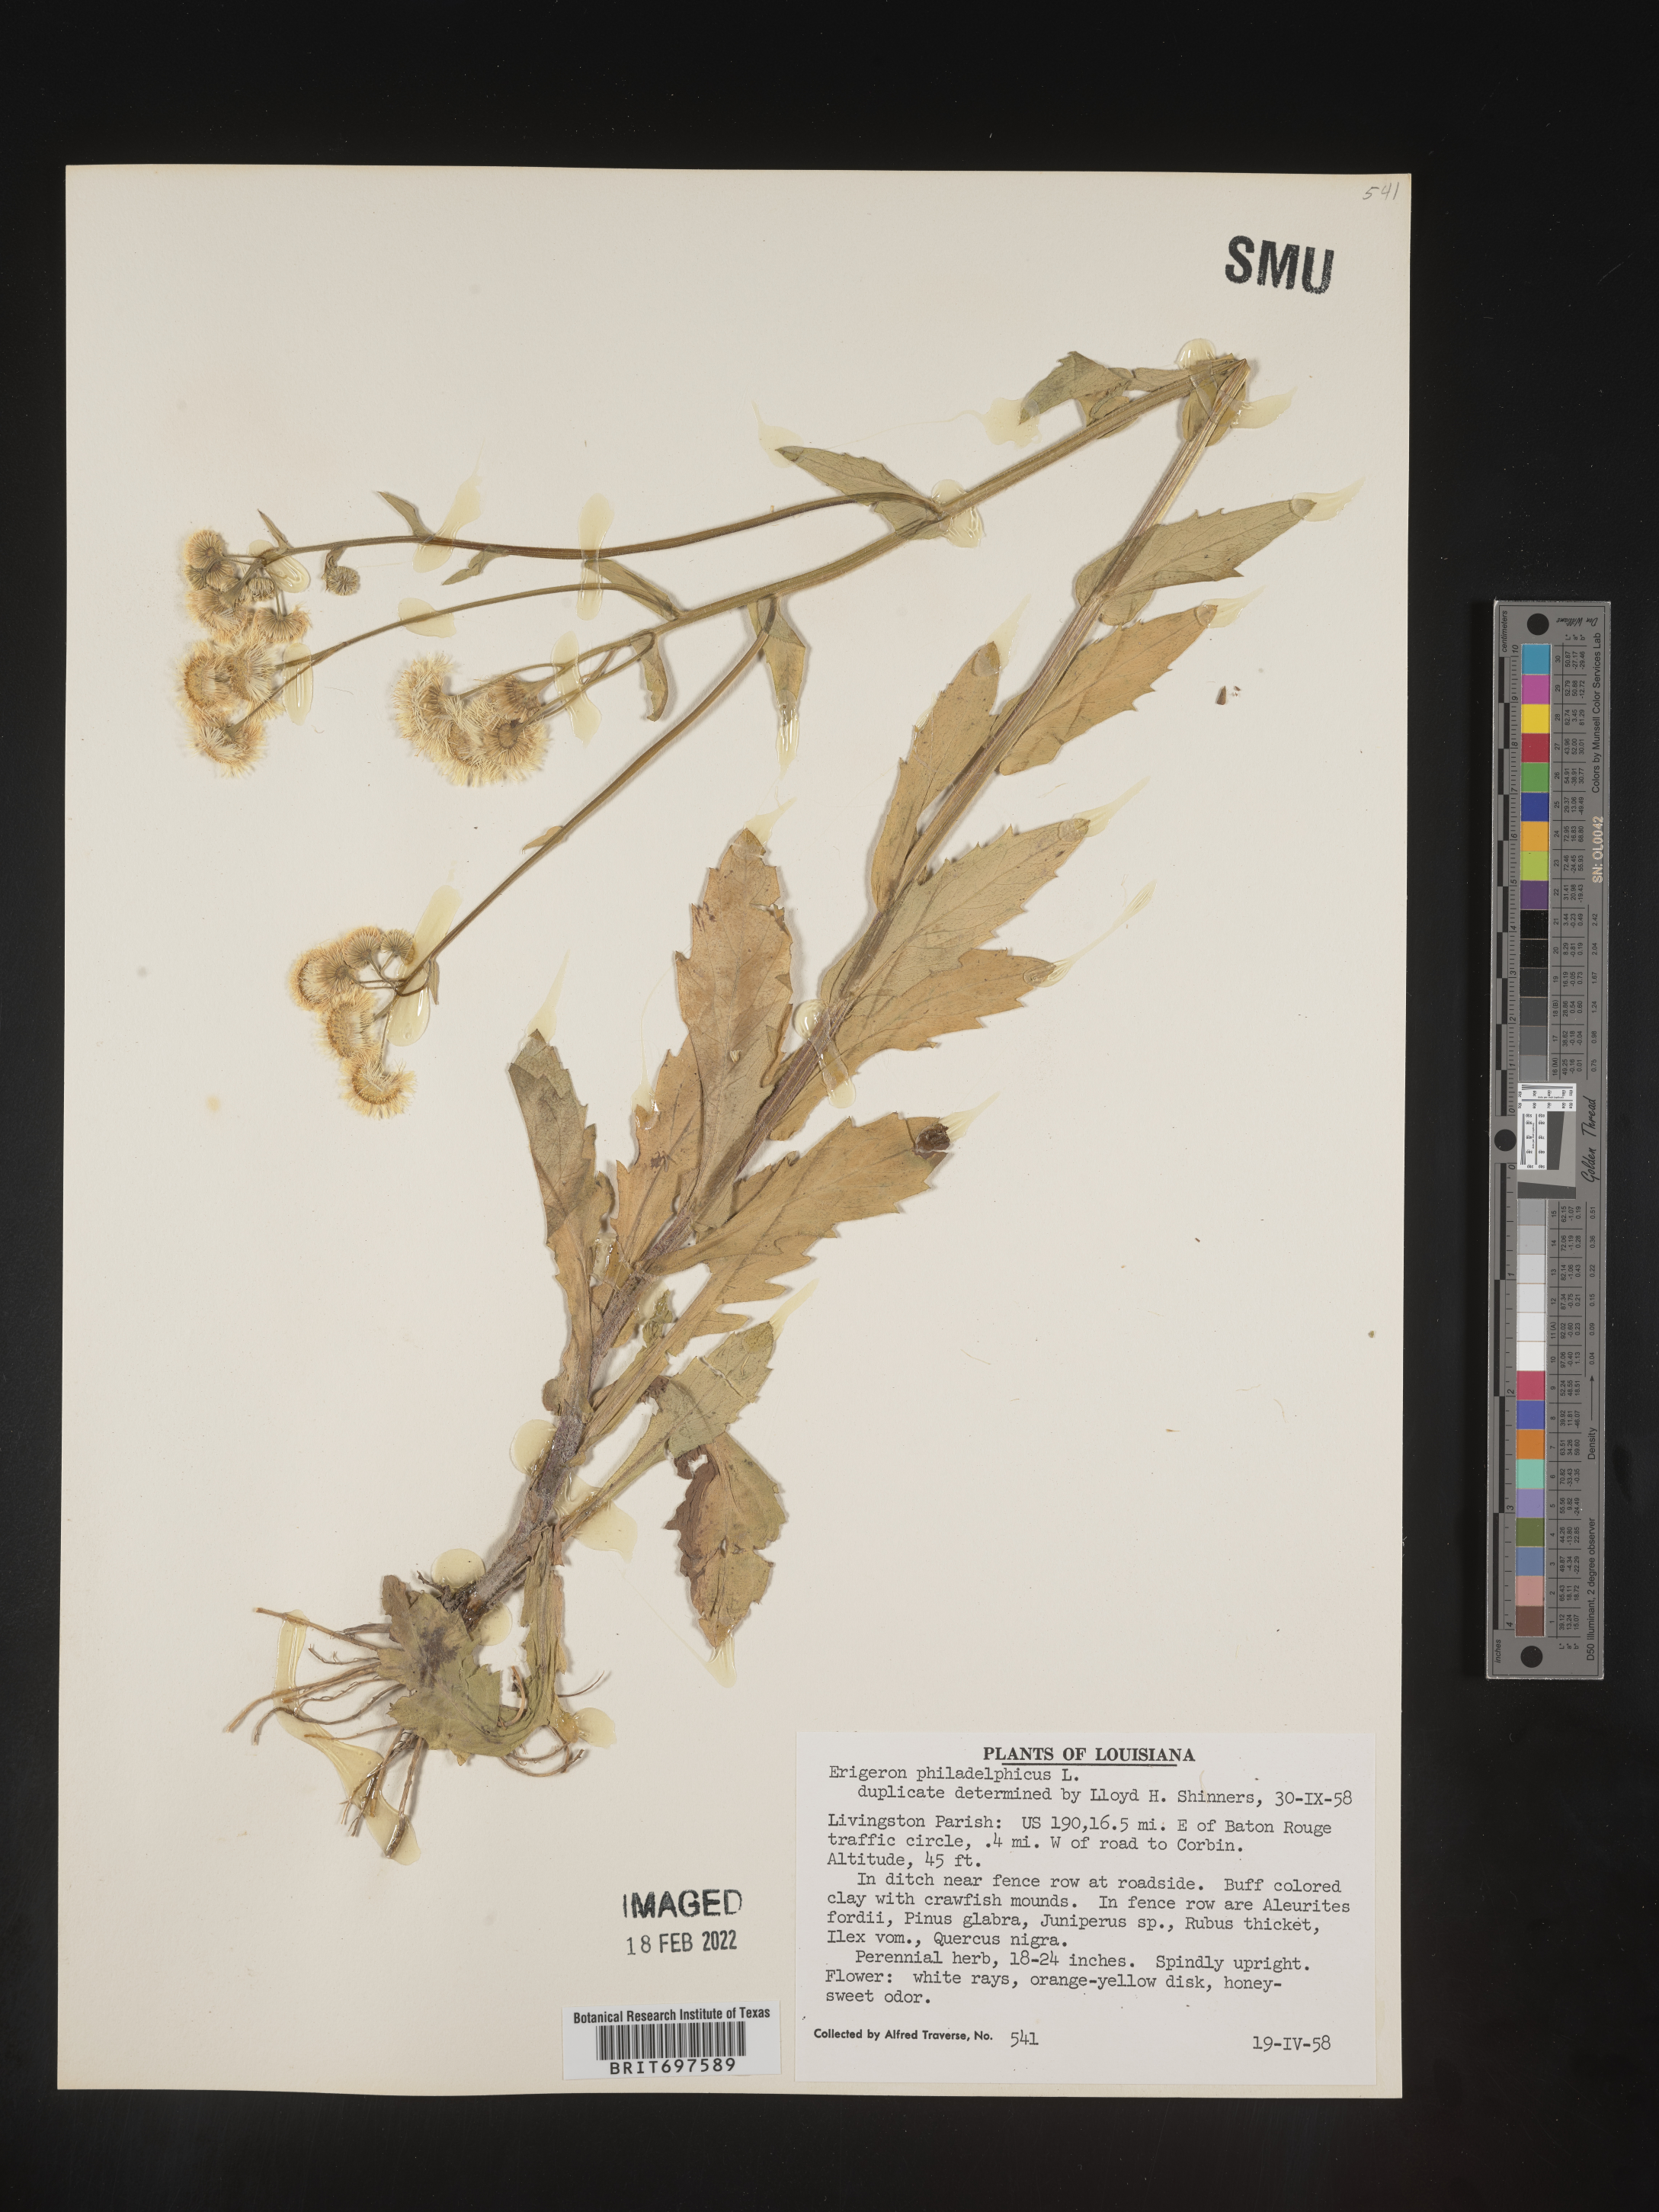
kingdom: Plantae
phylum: Tracheophyta
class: Magnoliopsida
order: Asterales
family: Asteraceae
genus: Erigeron
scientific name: Erigeron philadelphicus
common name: Robin's-plantain
